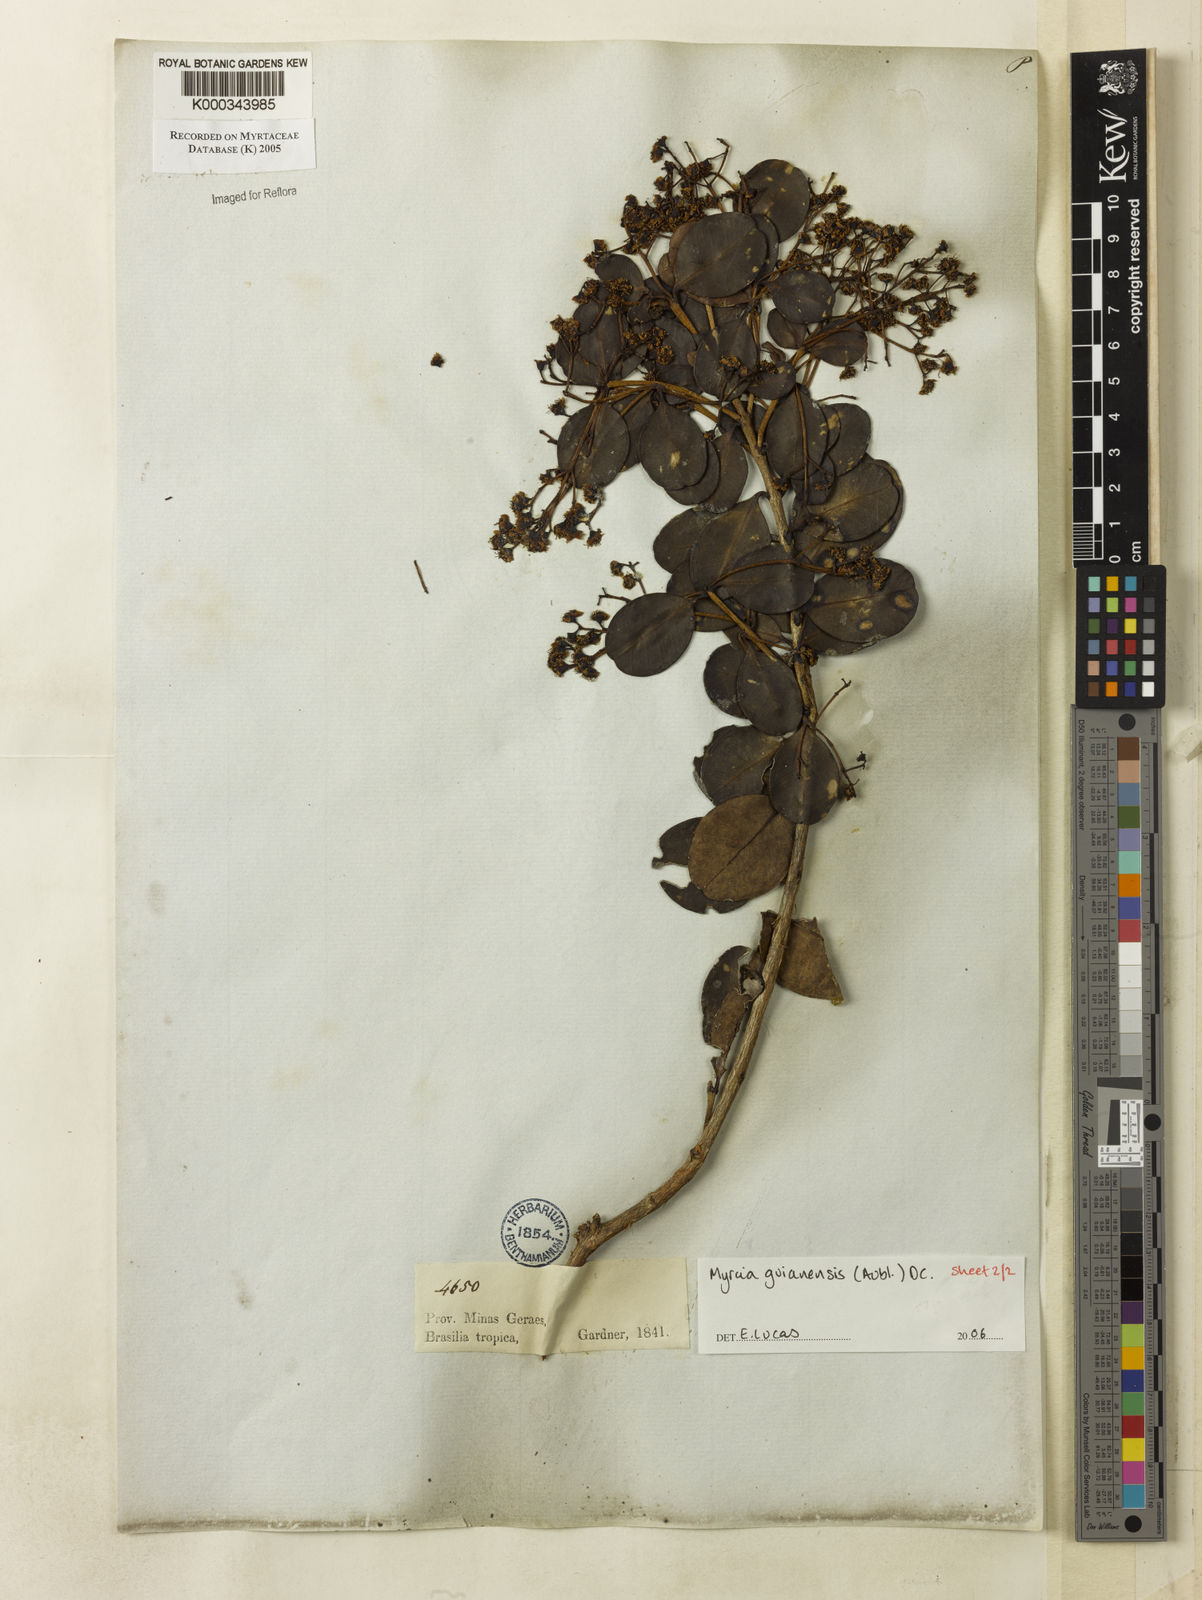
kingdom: Plantae
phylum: Tracheophyta
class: Magnoliopsida
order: Myrtales
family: Myrtaceae
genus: Myrcia
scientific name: Myrcia guianensis
